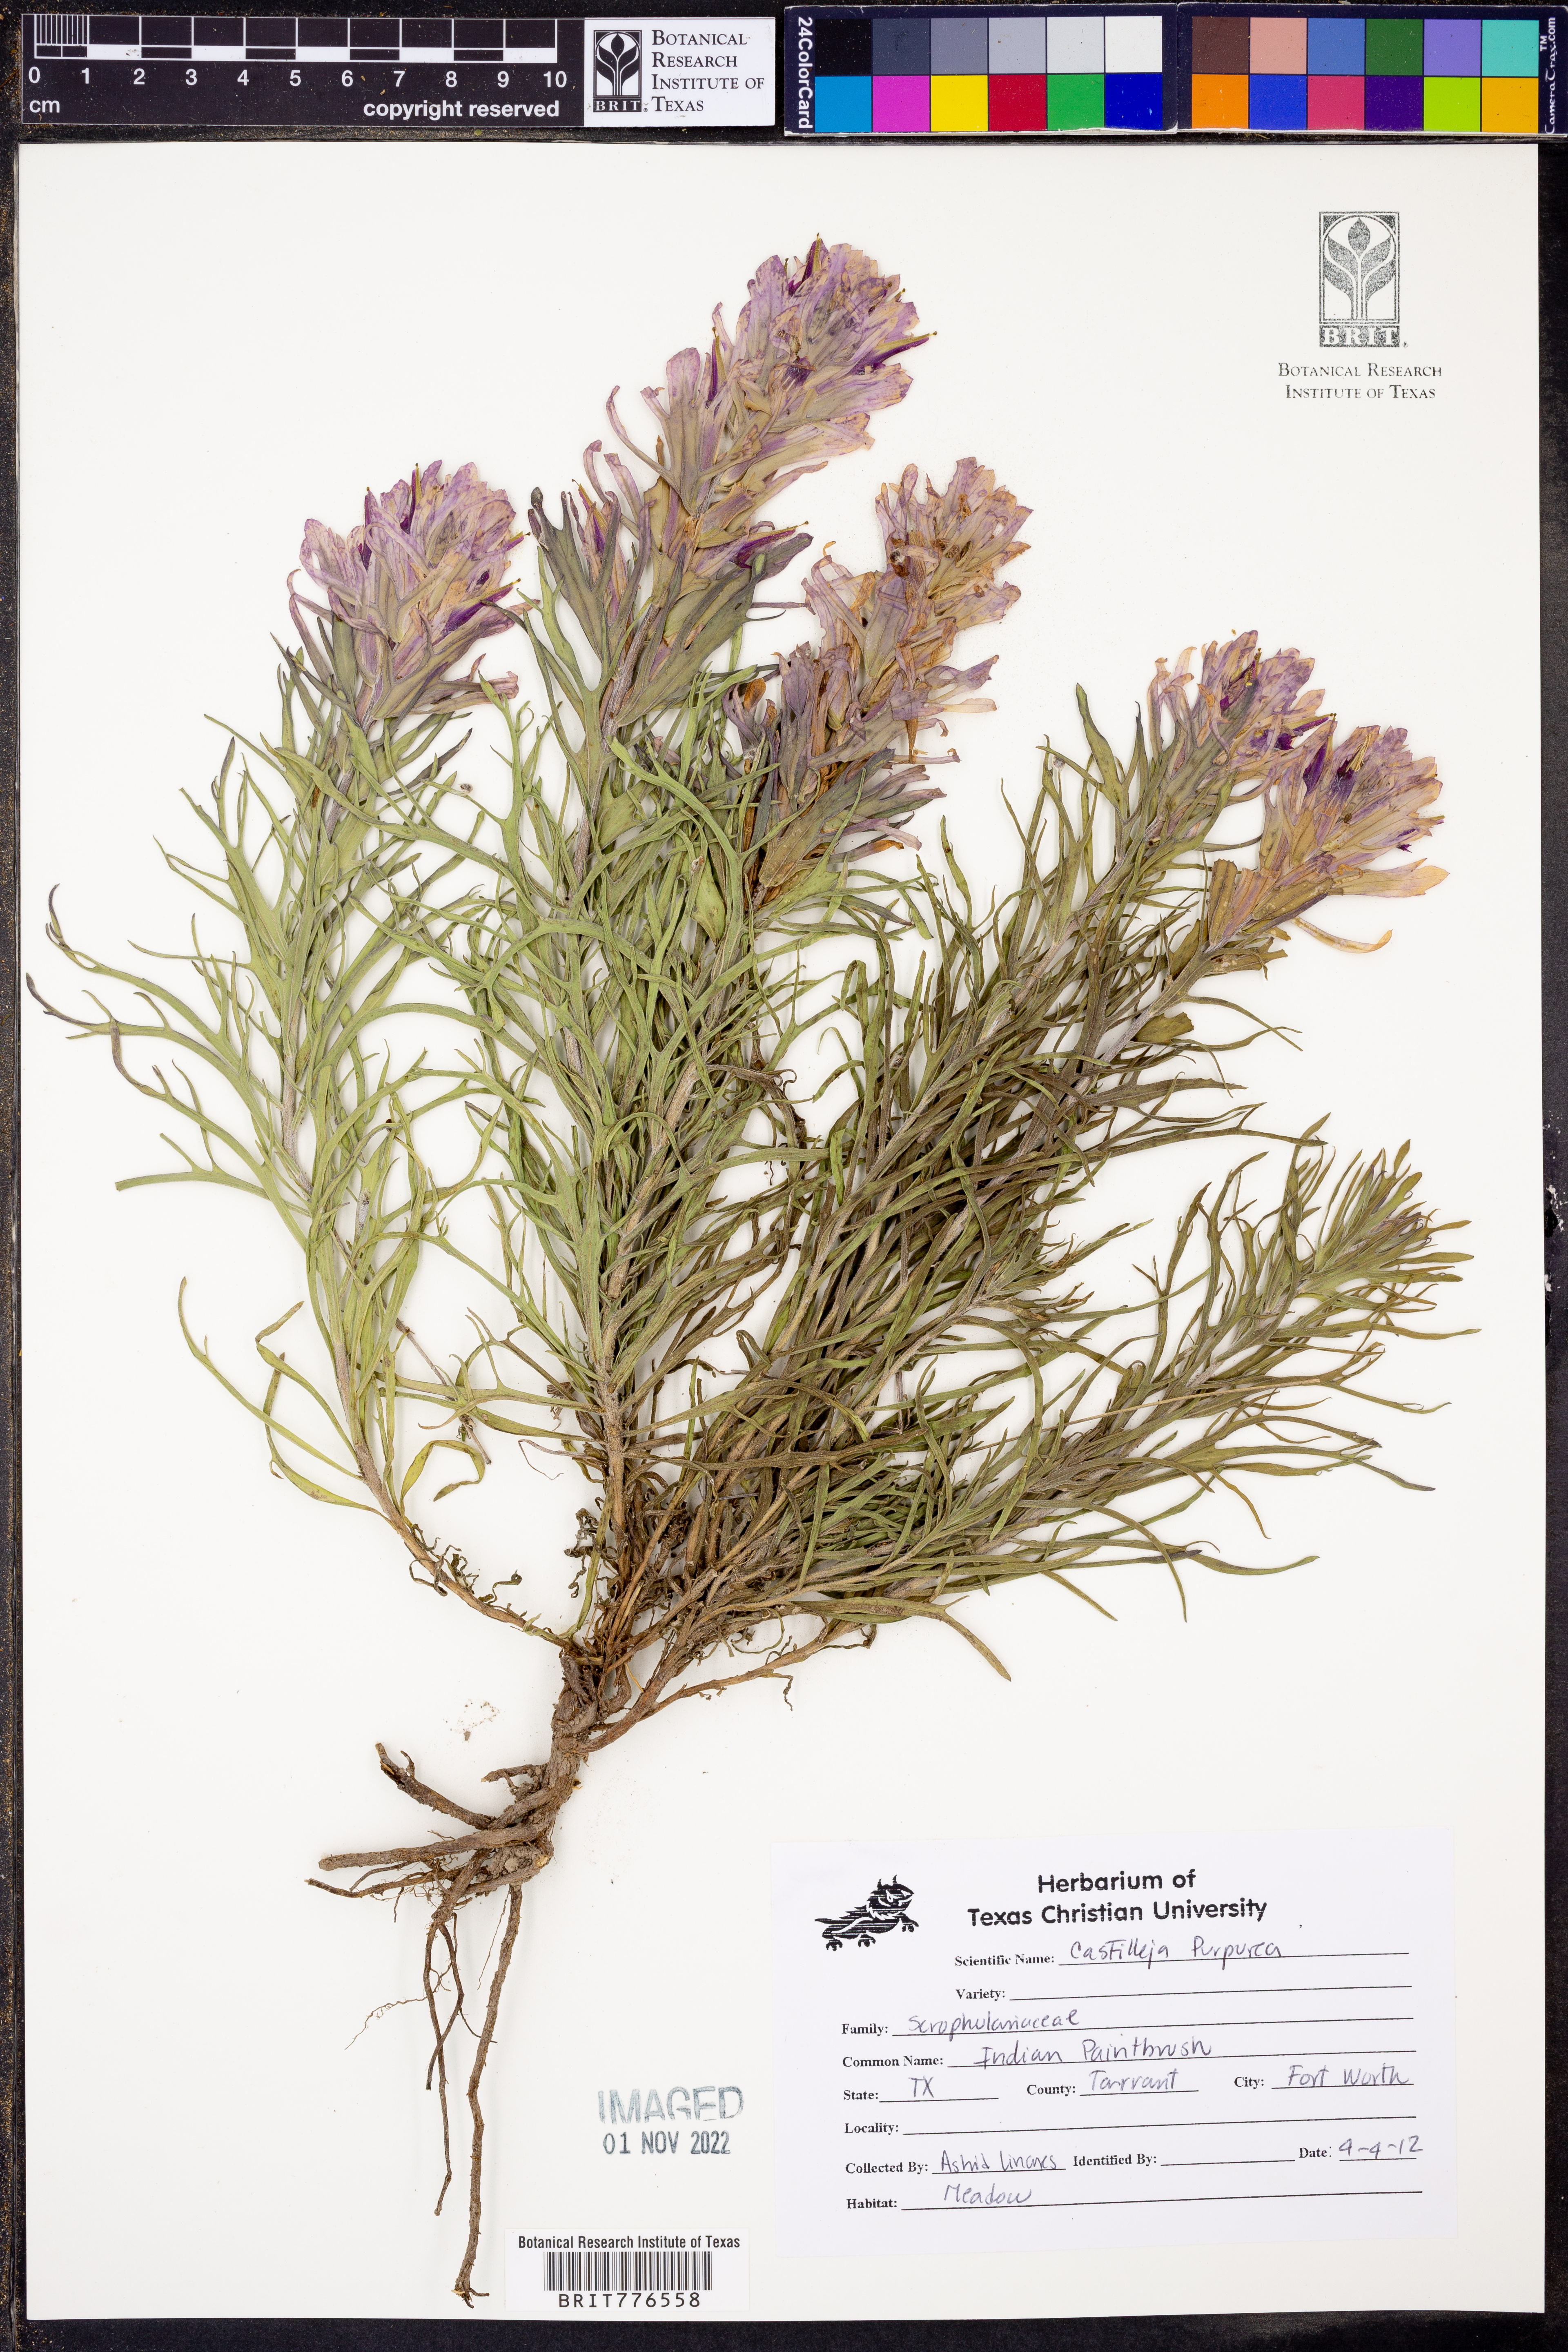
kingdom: Plantae
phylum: Tracheophyta
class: Magnoliopsida
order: Lamiales
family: Orobanchaceae
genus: Castilleja
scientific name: Castilleja purpurea
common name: Plains paintbrush
